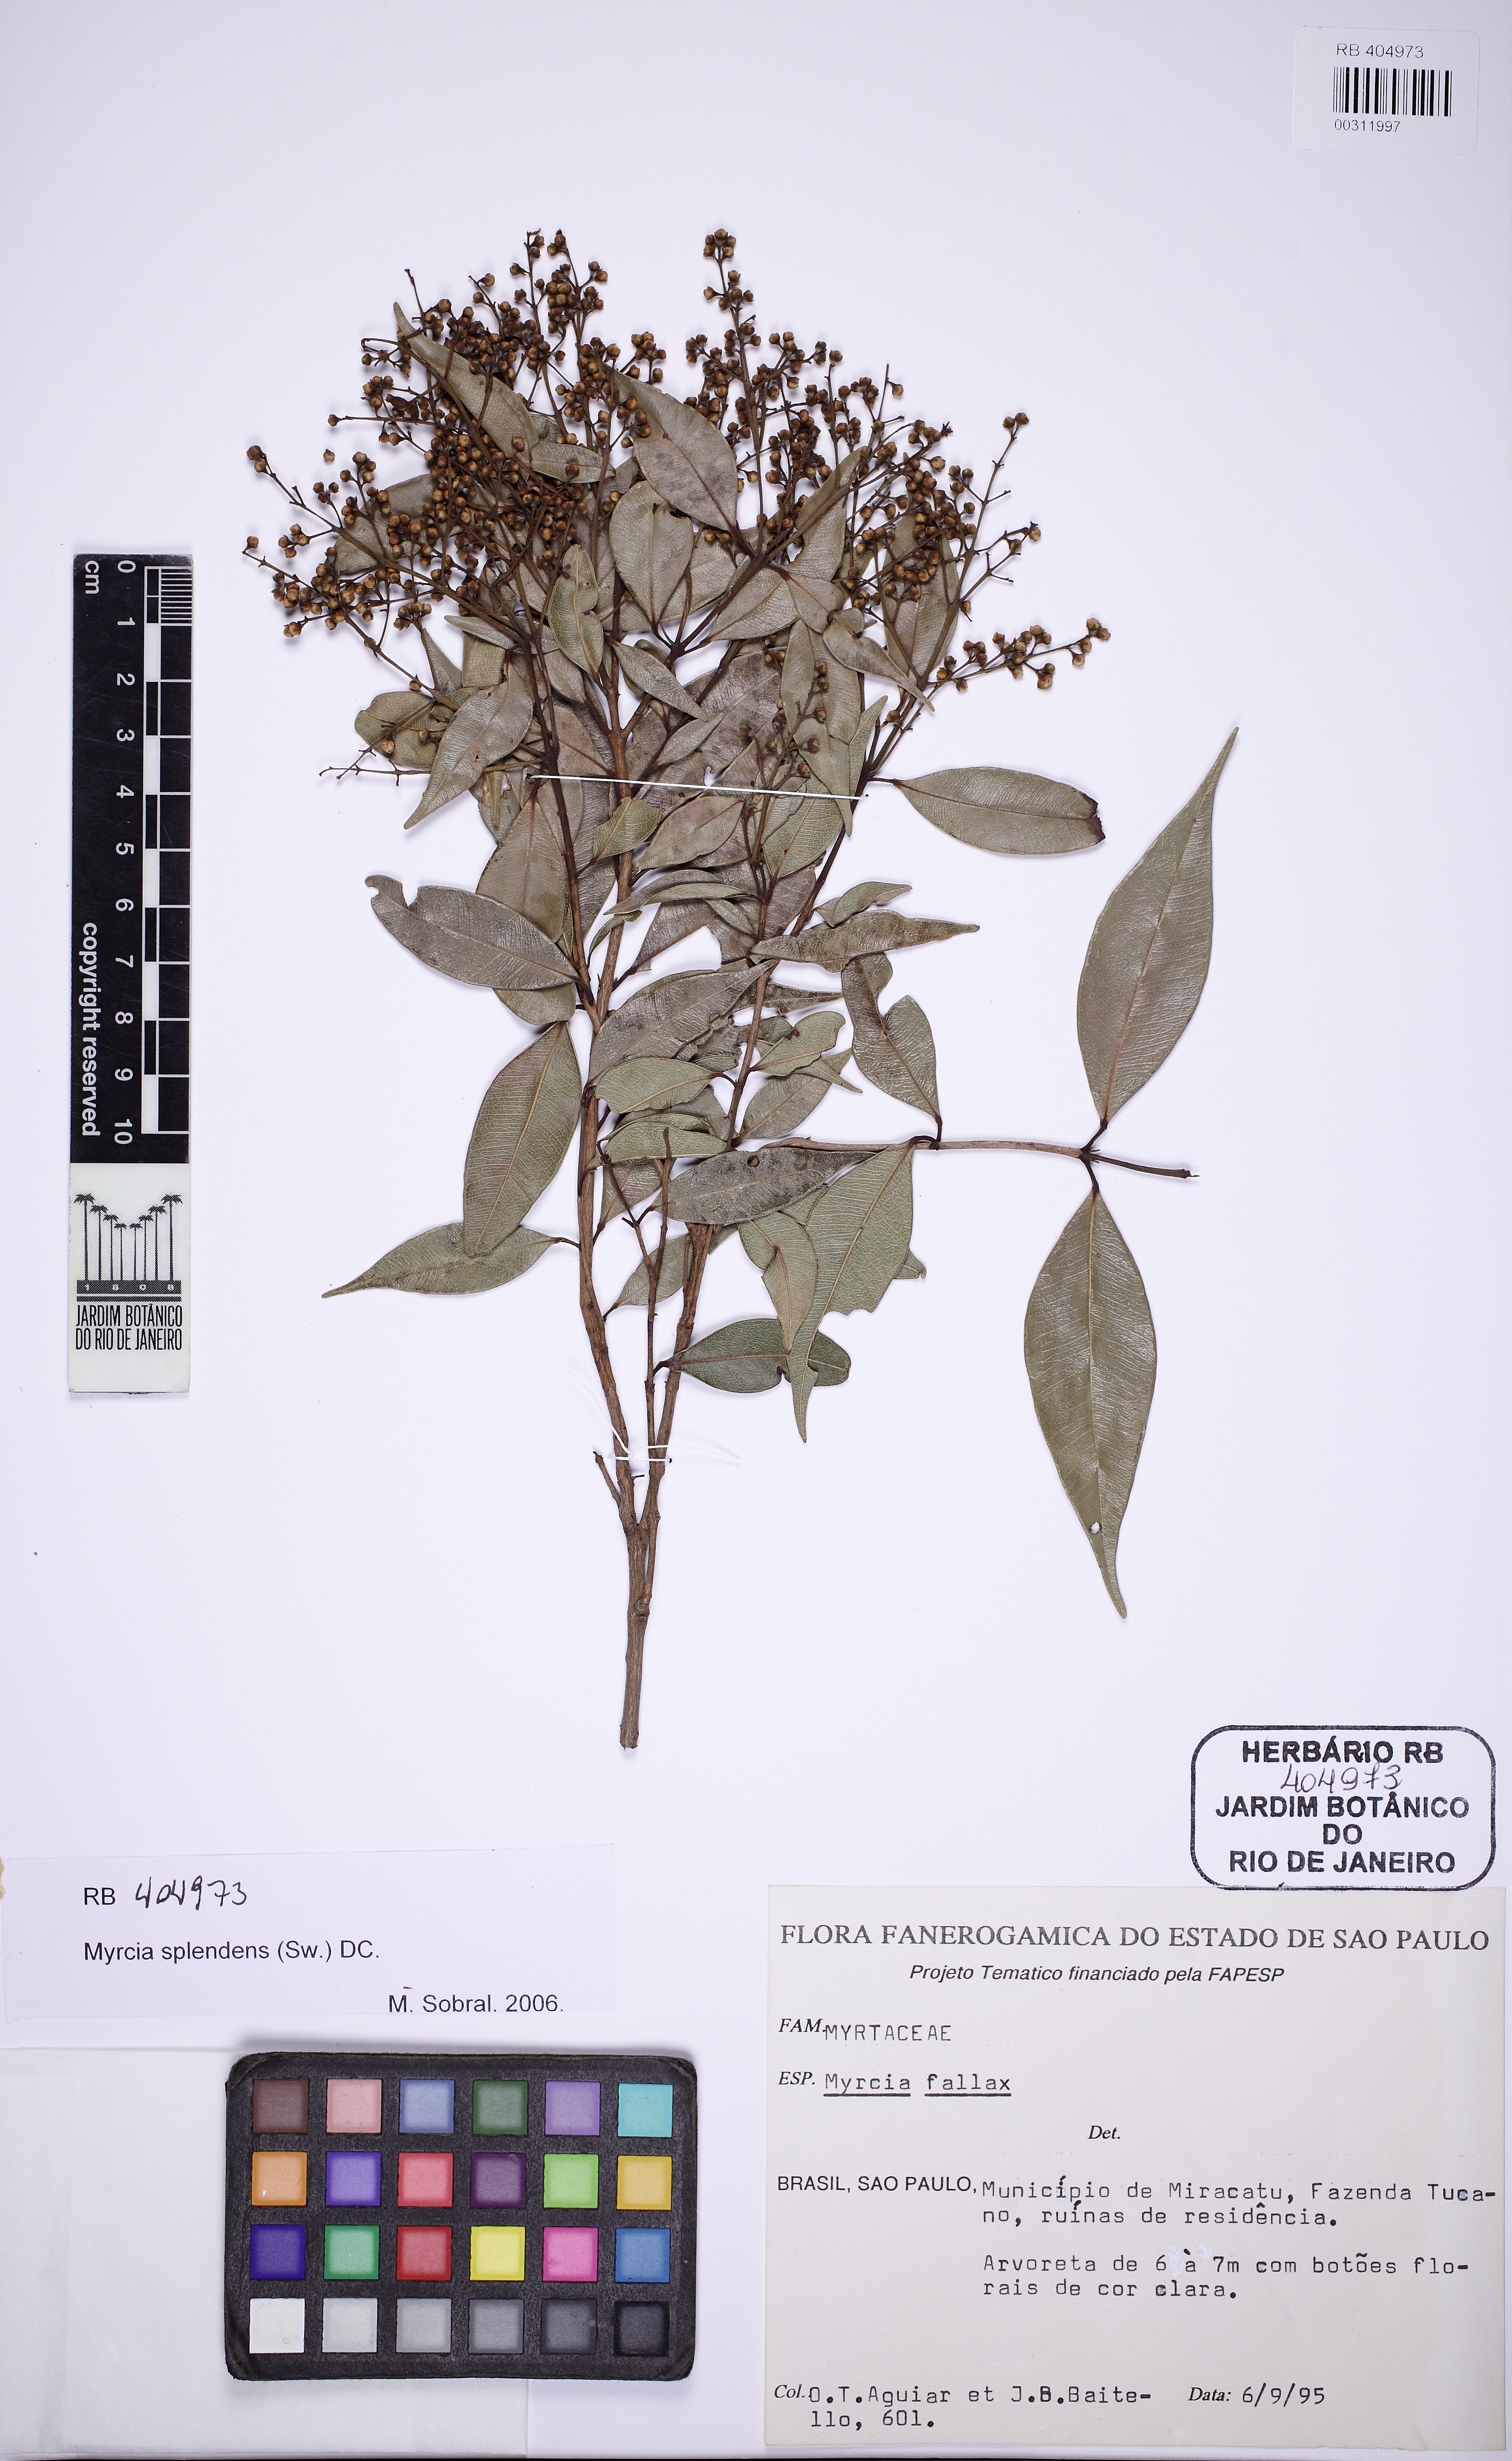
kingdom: Plantae
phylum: Tracheophyta
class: Magnoliopsida
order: Myrtales
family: Myrtaceae
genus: Myrcia
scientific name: Myrcia splendens
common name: Surinam cherry
